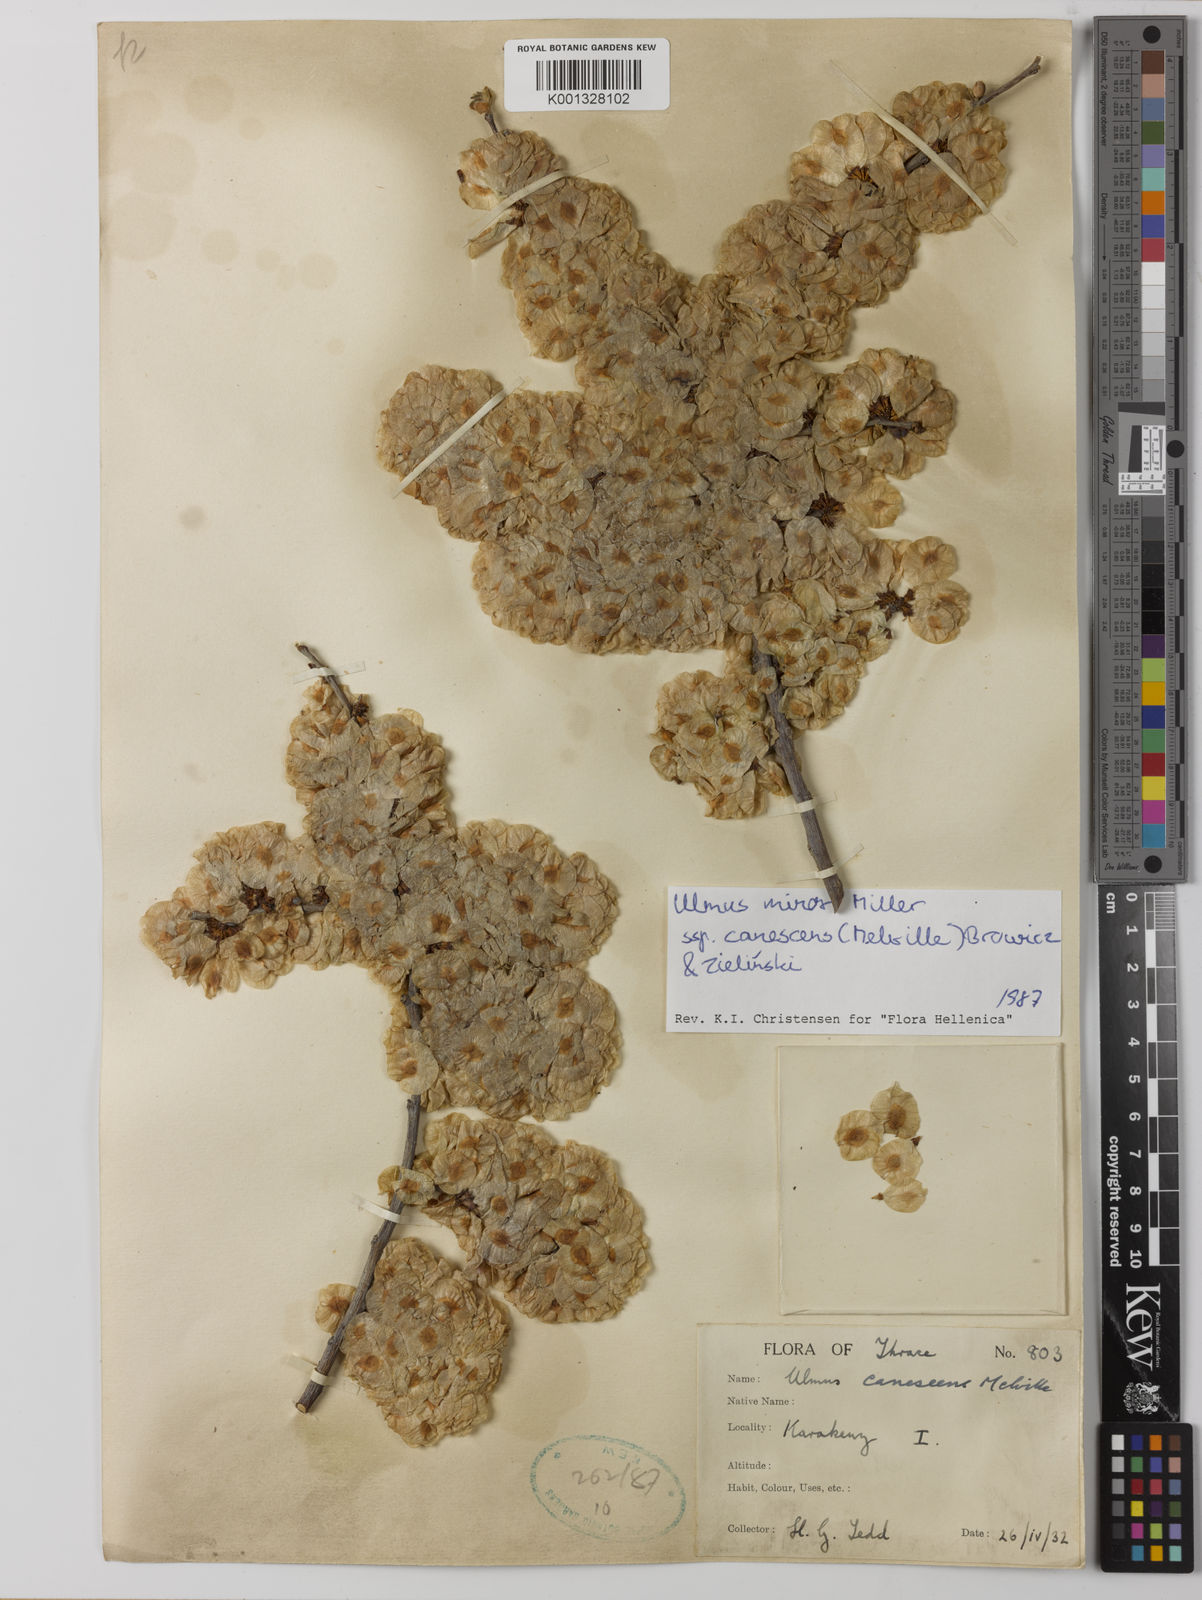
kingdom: Plantae
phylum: Tracheophyta
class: Magnoliopsida
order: Rosales
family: Ulmaceae
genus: Ulmus
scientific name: Ulmus minor
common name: Small-leaved elm
